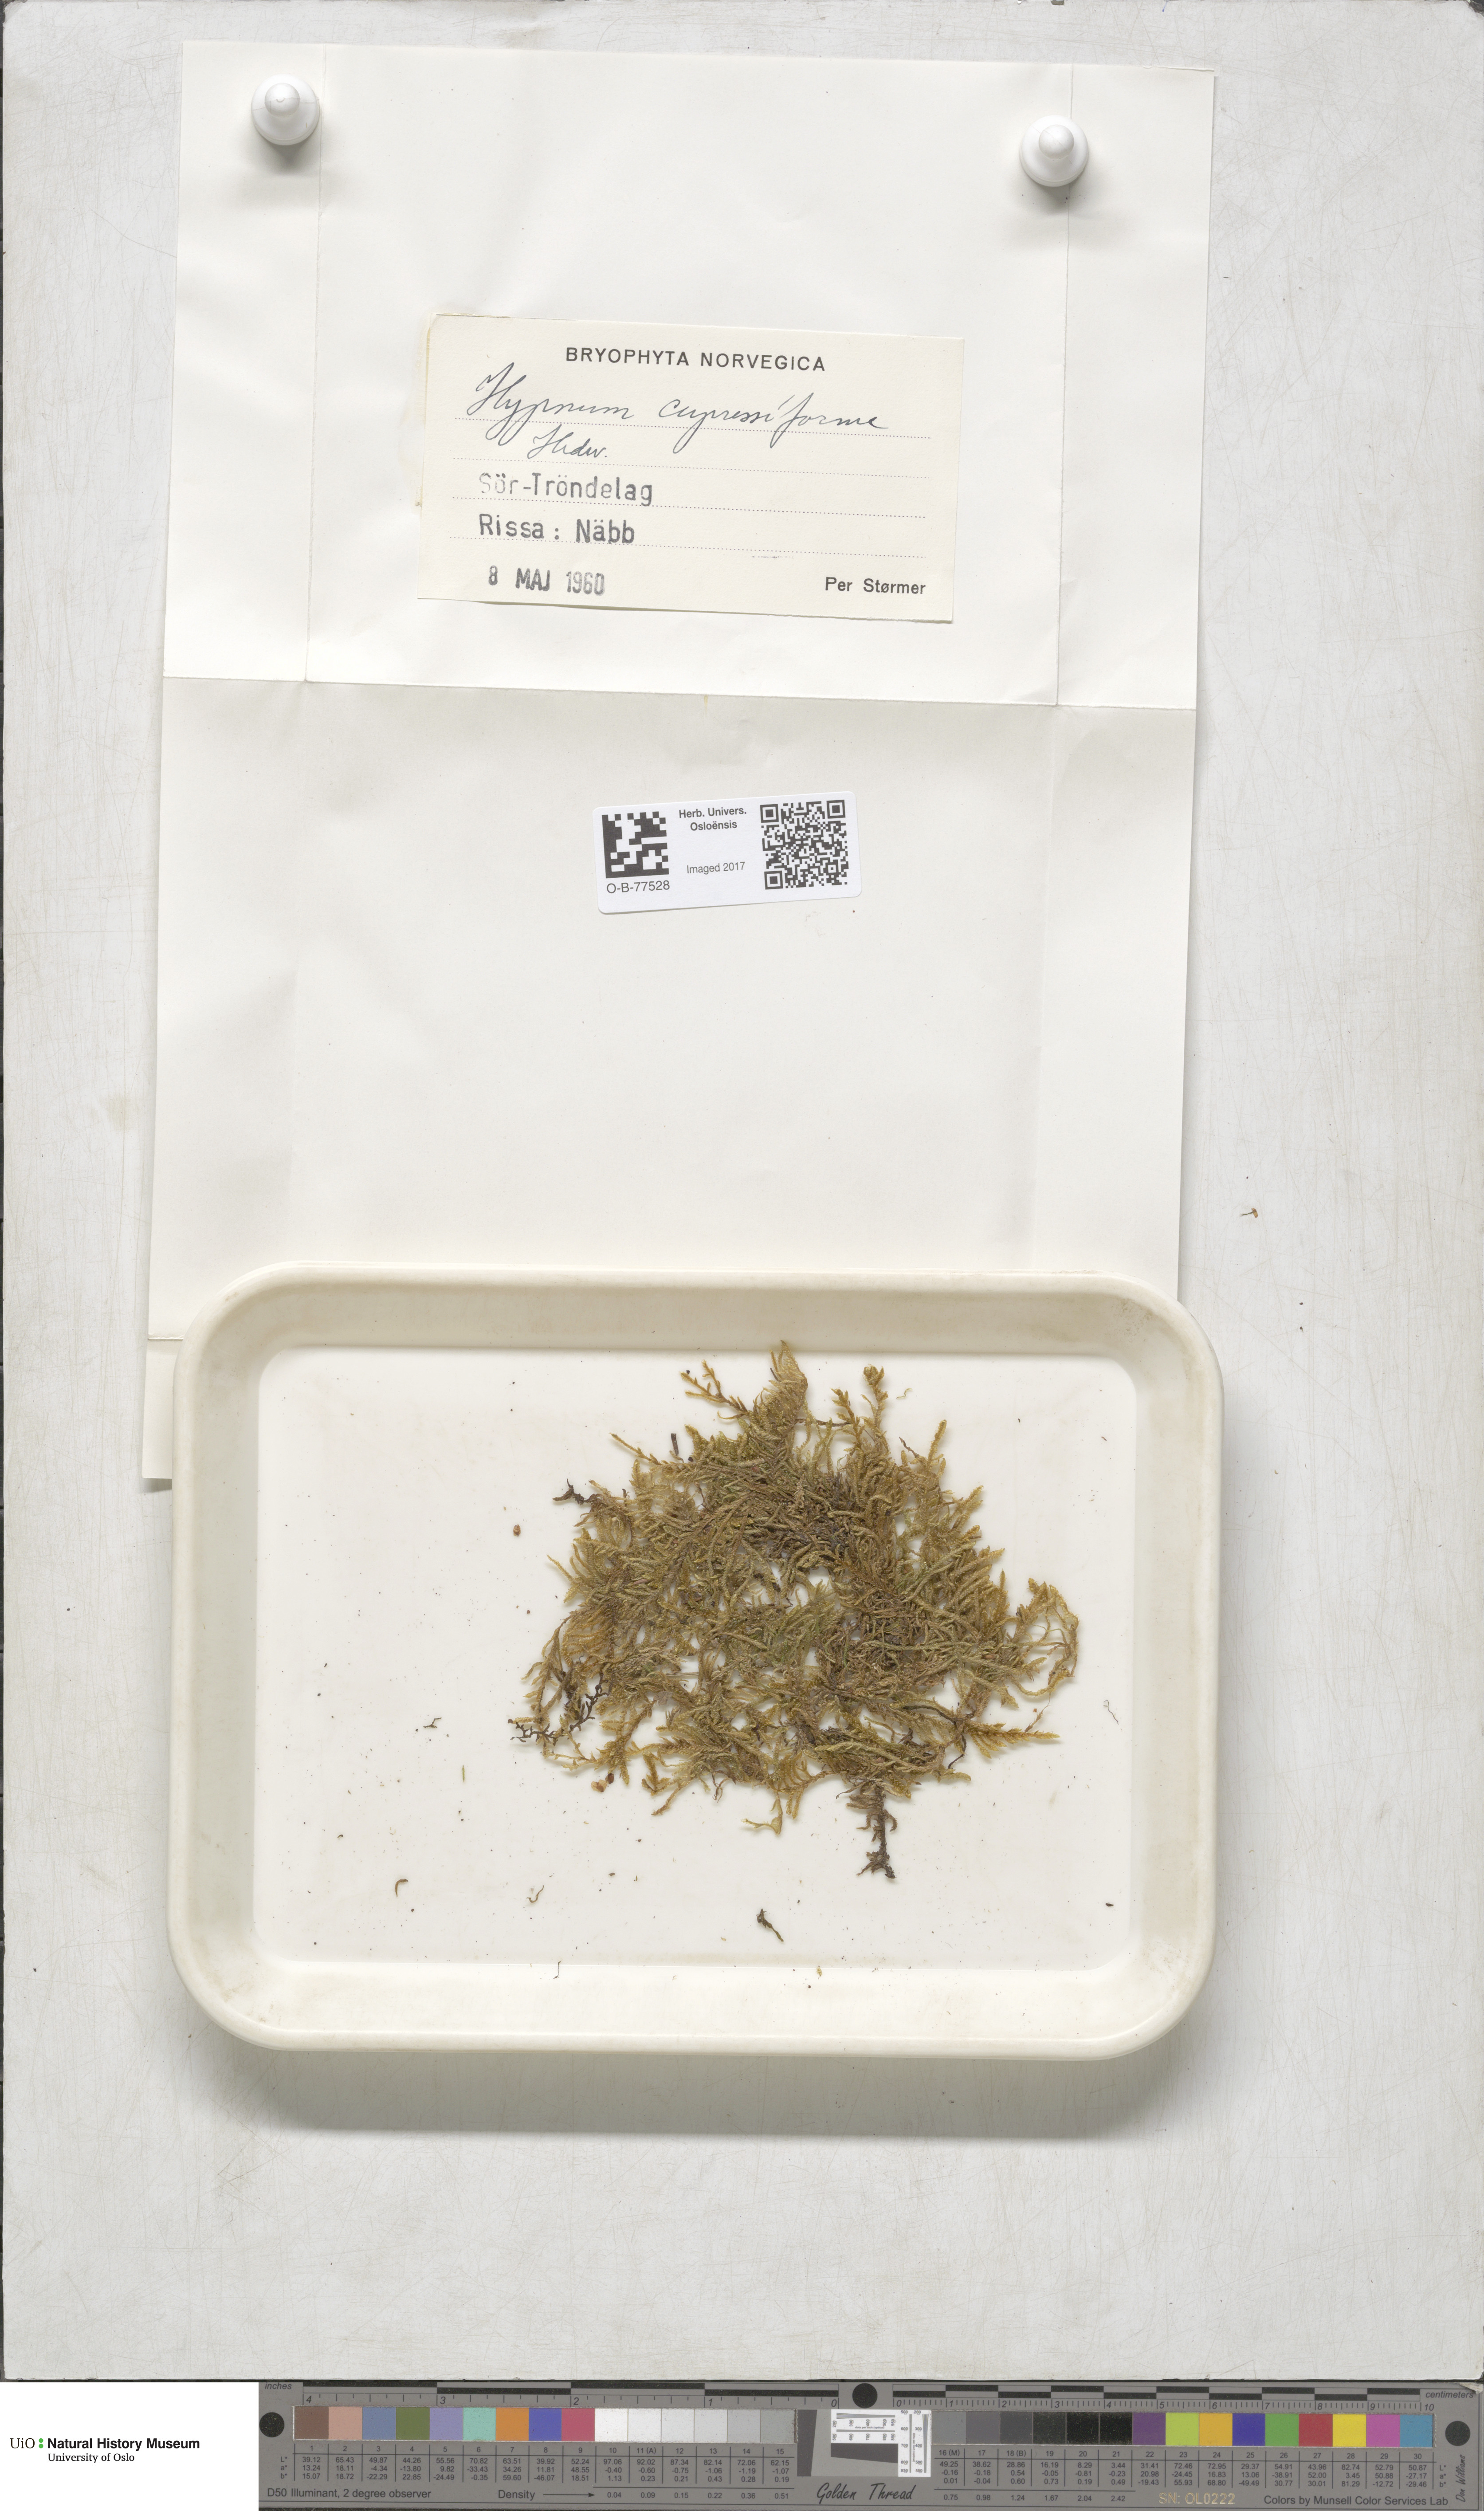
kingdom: Plantae
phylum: Bryophyta
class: Bryopsida
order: Hypnales
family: Hypnaceae
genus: Hypnum
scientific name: Hypnum cupressiforme
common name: Cypress-leaved plait-moss
